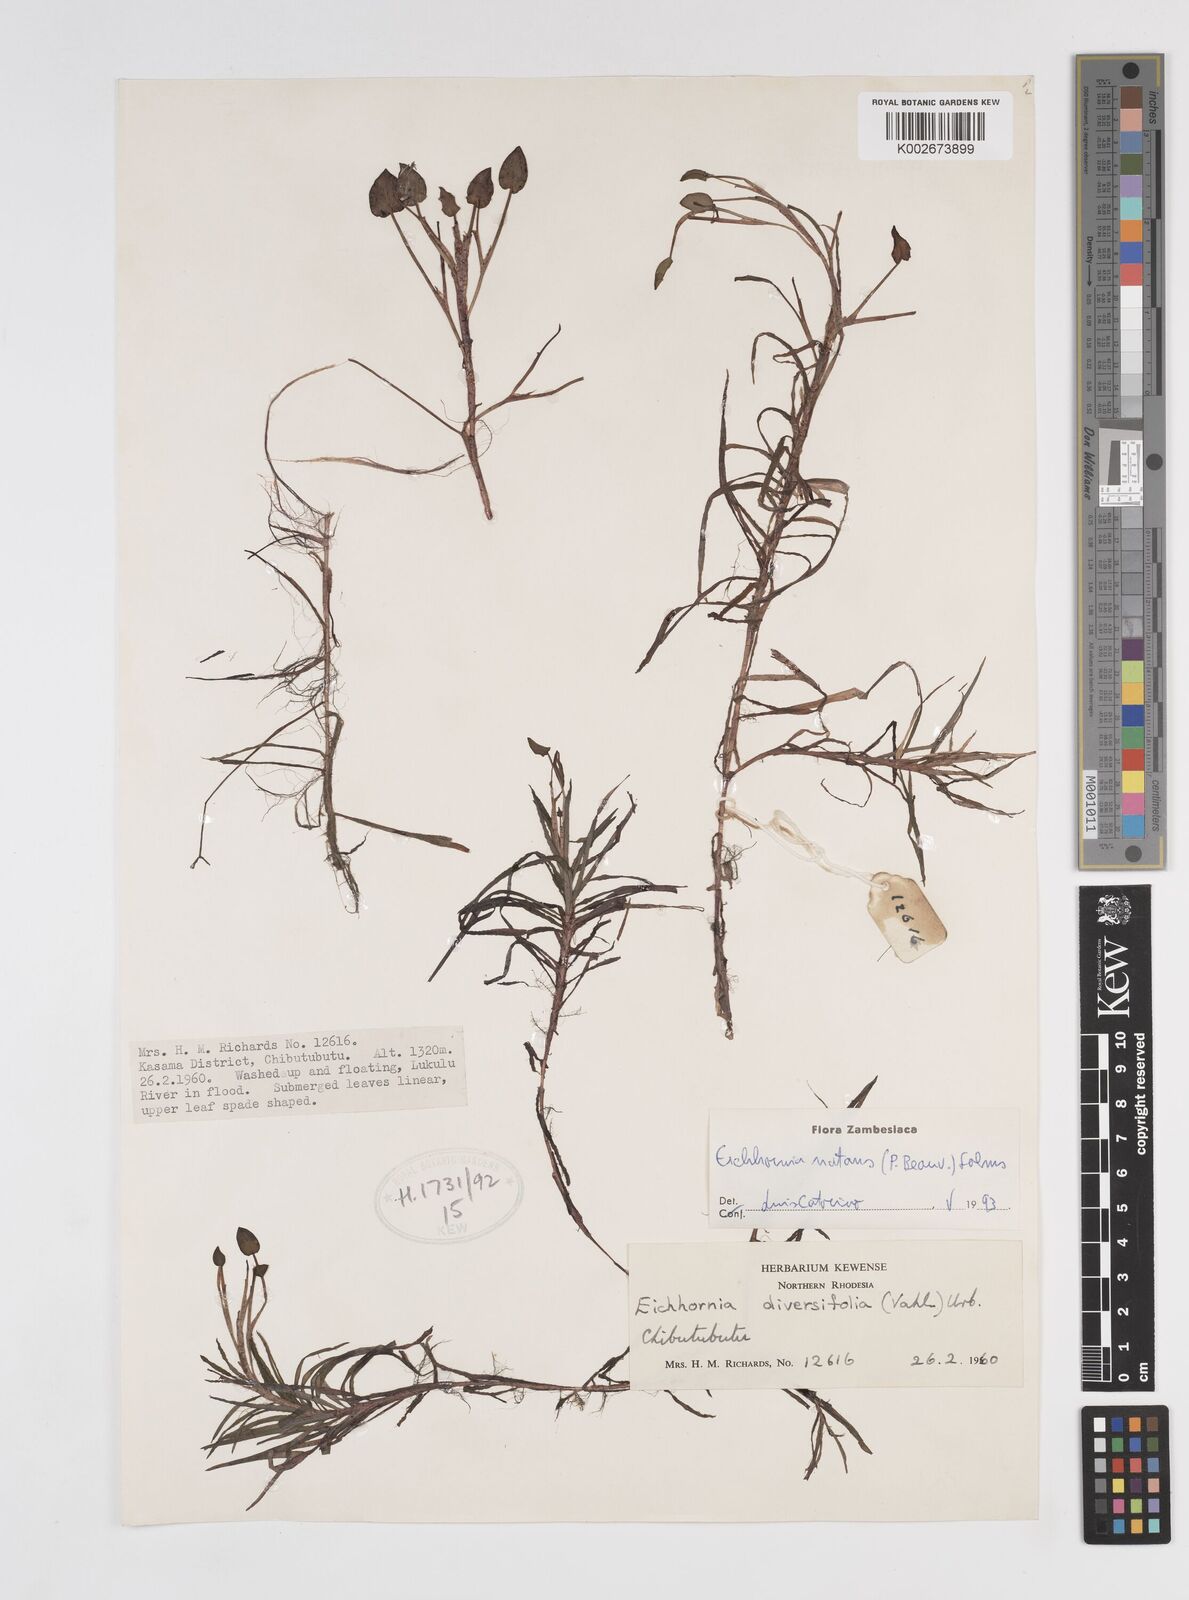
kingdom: Plantae
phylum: Tracheophyta
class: Liliopsida
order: Commelinales
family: Pontederiaceae
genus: Pontederia
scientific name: Pontederia diversifolia
